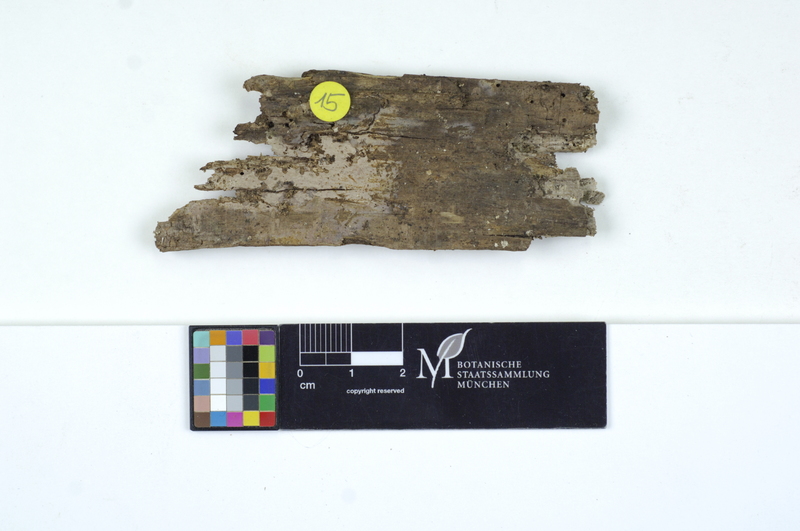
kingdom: Plantae
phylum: Tracheophyta
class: Magnoliopsida
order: Fagales
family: Fagaceae
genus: Quercus
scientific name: Quercus
